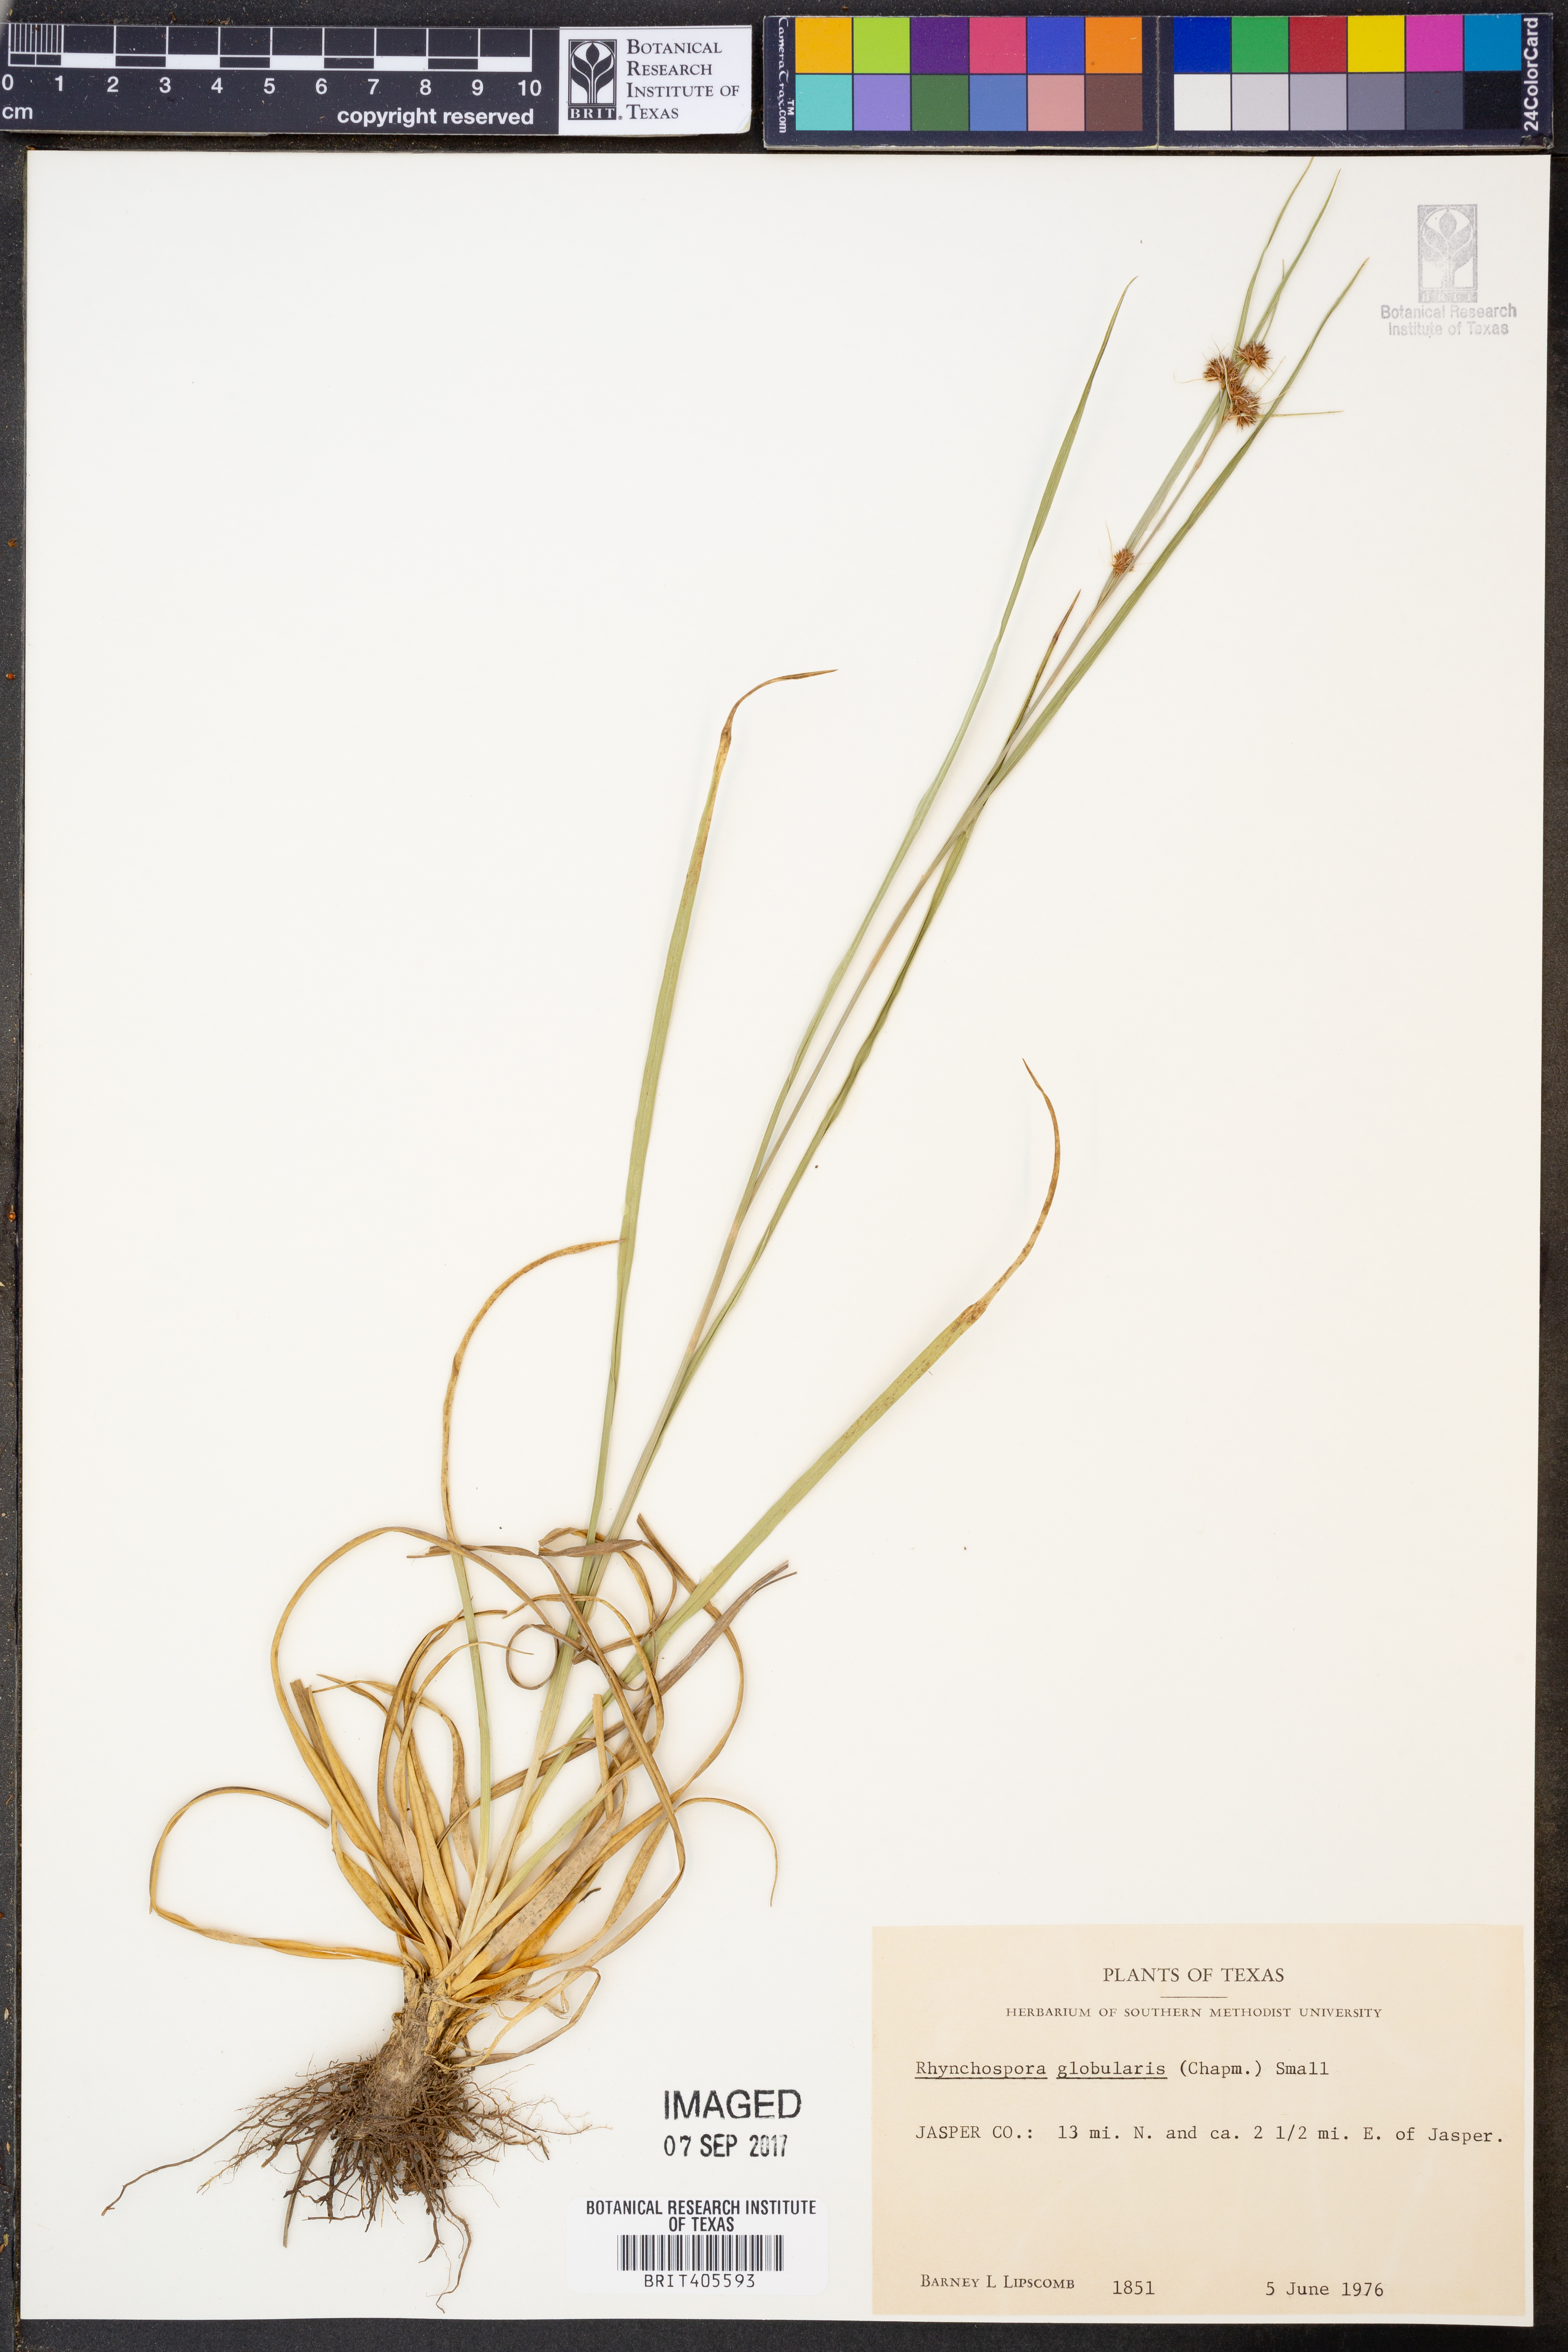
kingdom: Plantae
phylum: Tracheophyta
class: Liliopsida
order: Poales
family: Cyperaceae
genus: Rhynchospora
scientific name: Rhynchospora globularis
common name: Globe beaksedge
